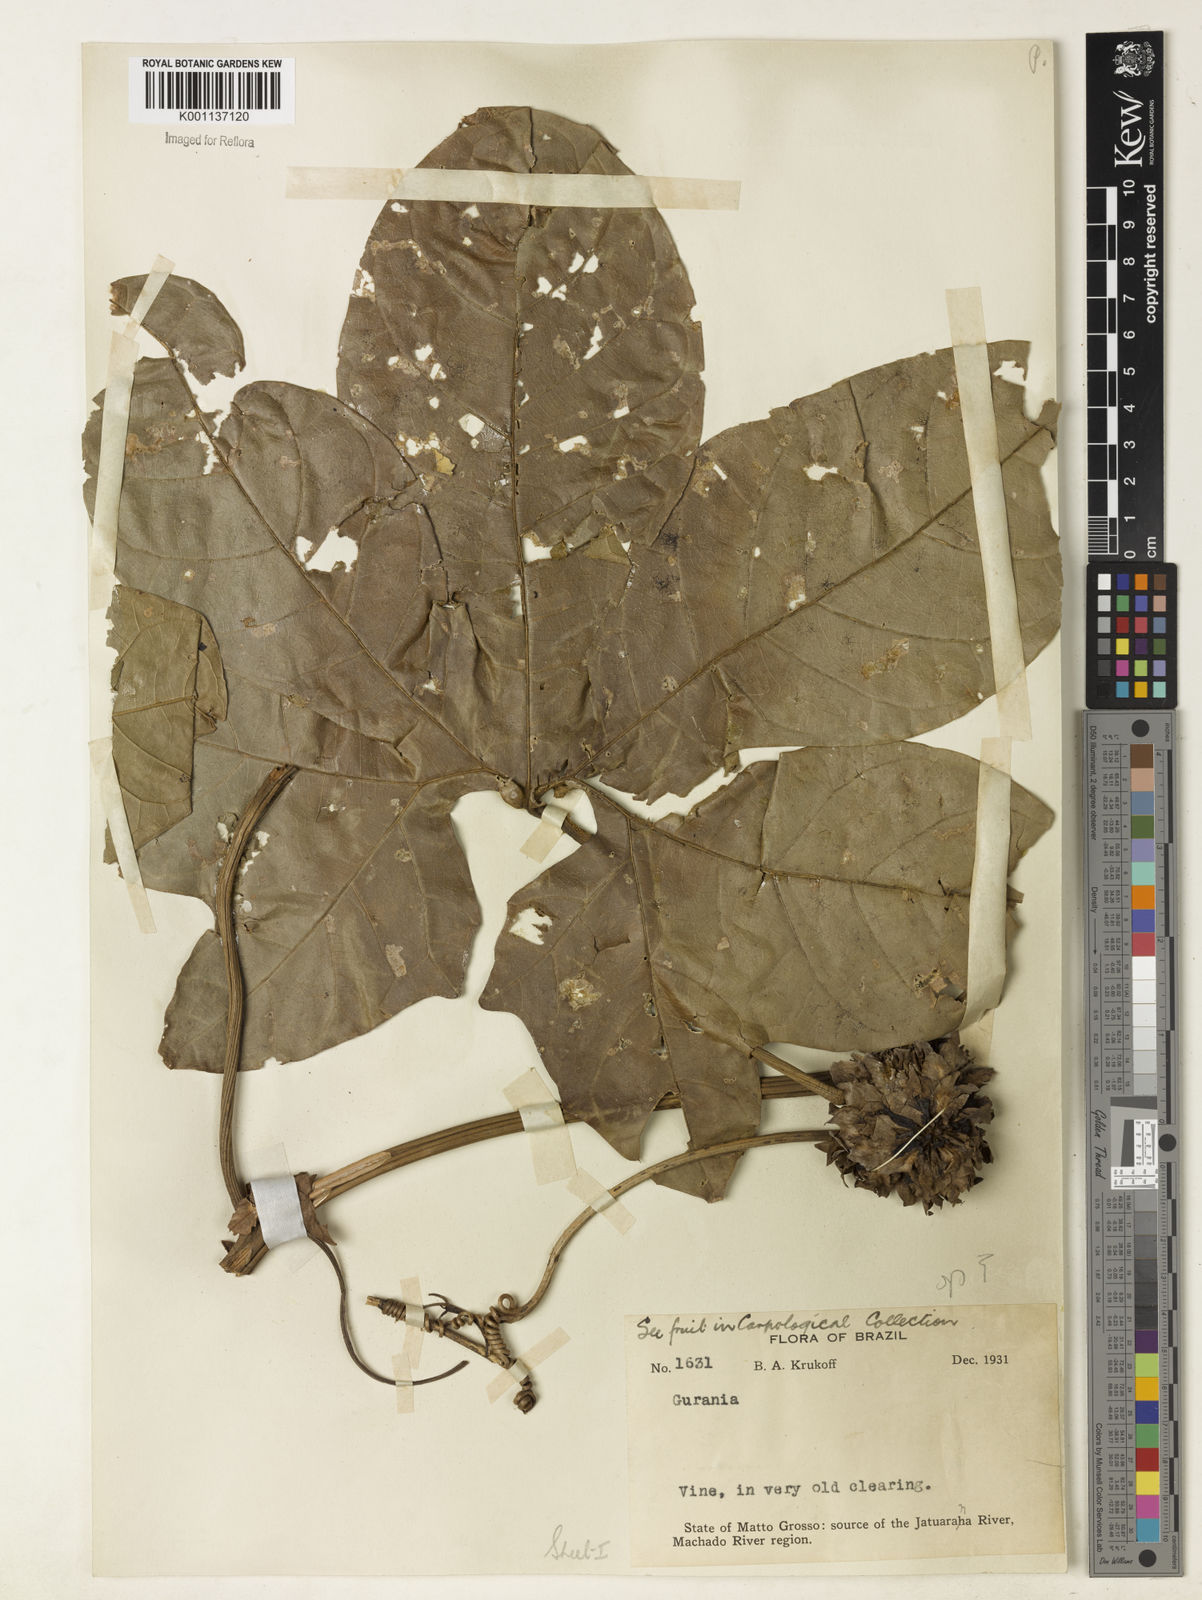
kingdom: Plantae
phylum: Tracheophyta
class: Magnoliopsida
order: Cucurbitales
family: Cucurbitaceae
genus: Cayaponia
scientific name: Cayaponia ophthalmica
